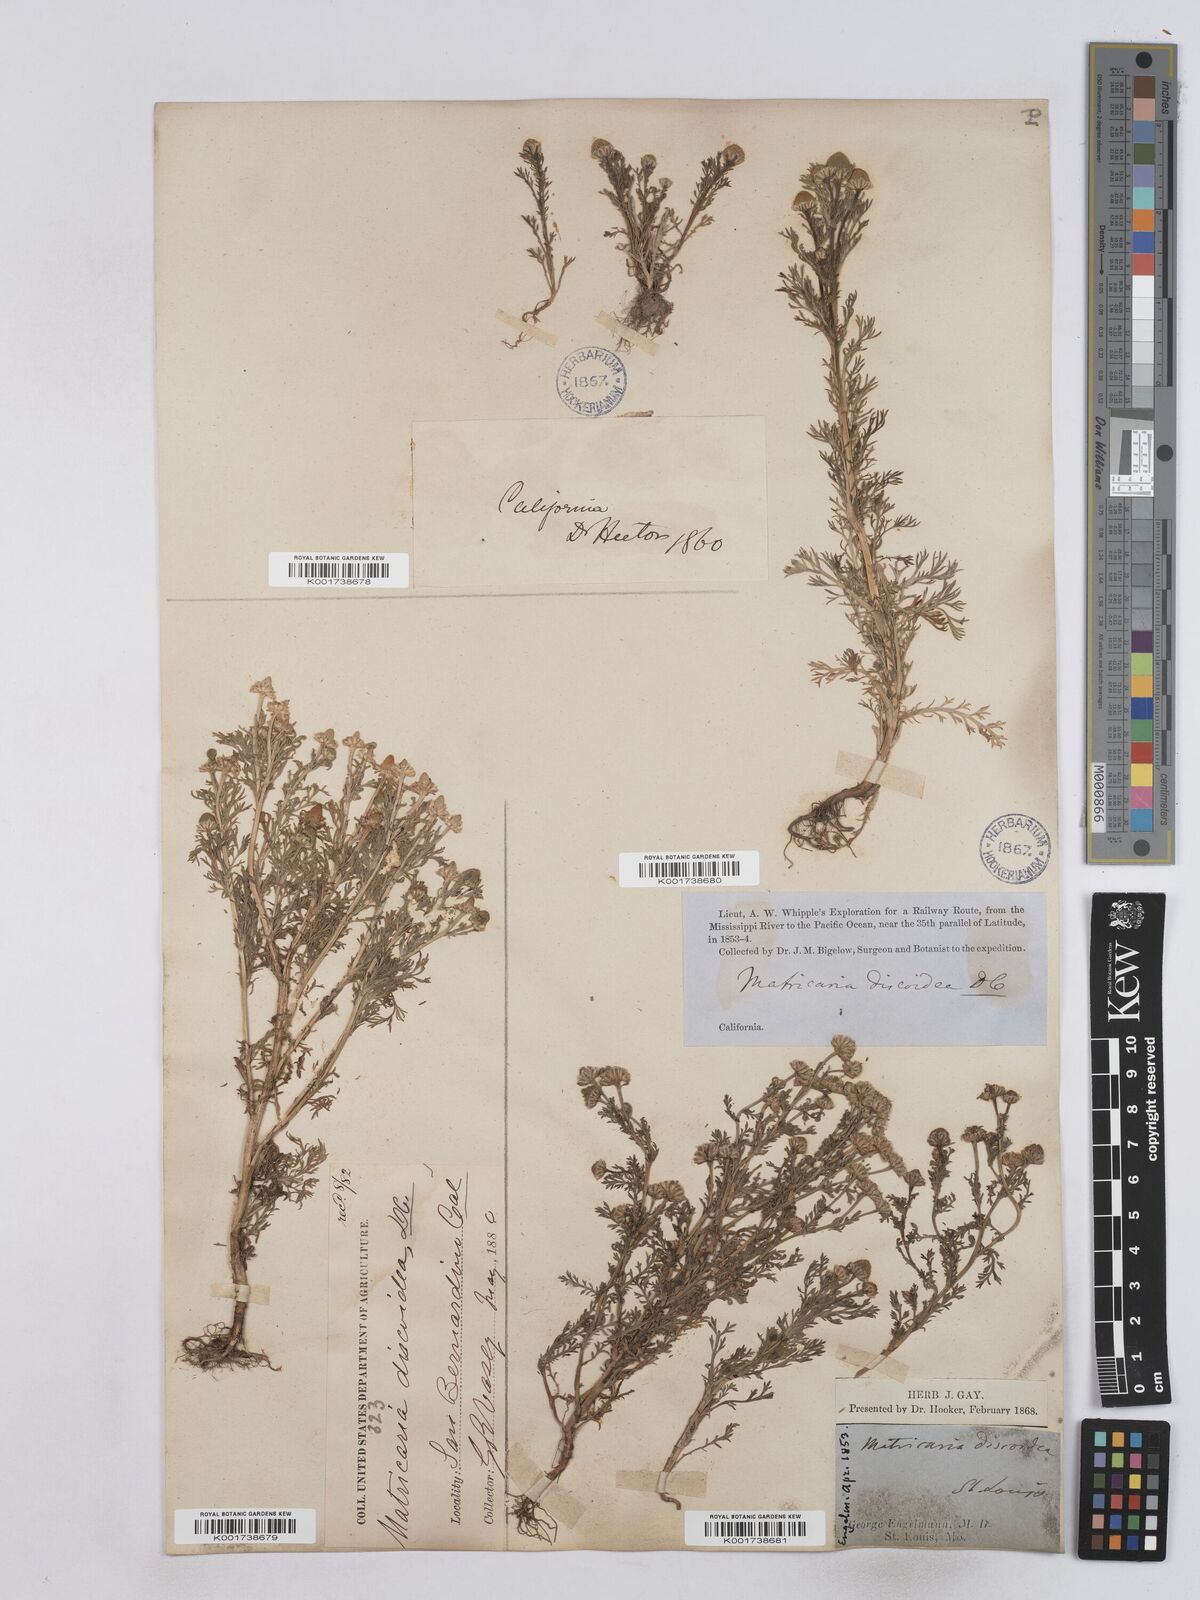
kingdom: Plantae
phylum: Tracheophyta
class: Magnoliopsida
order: Asterales
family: Asteraceae
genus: Matricaria
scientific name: Matricaria
